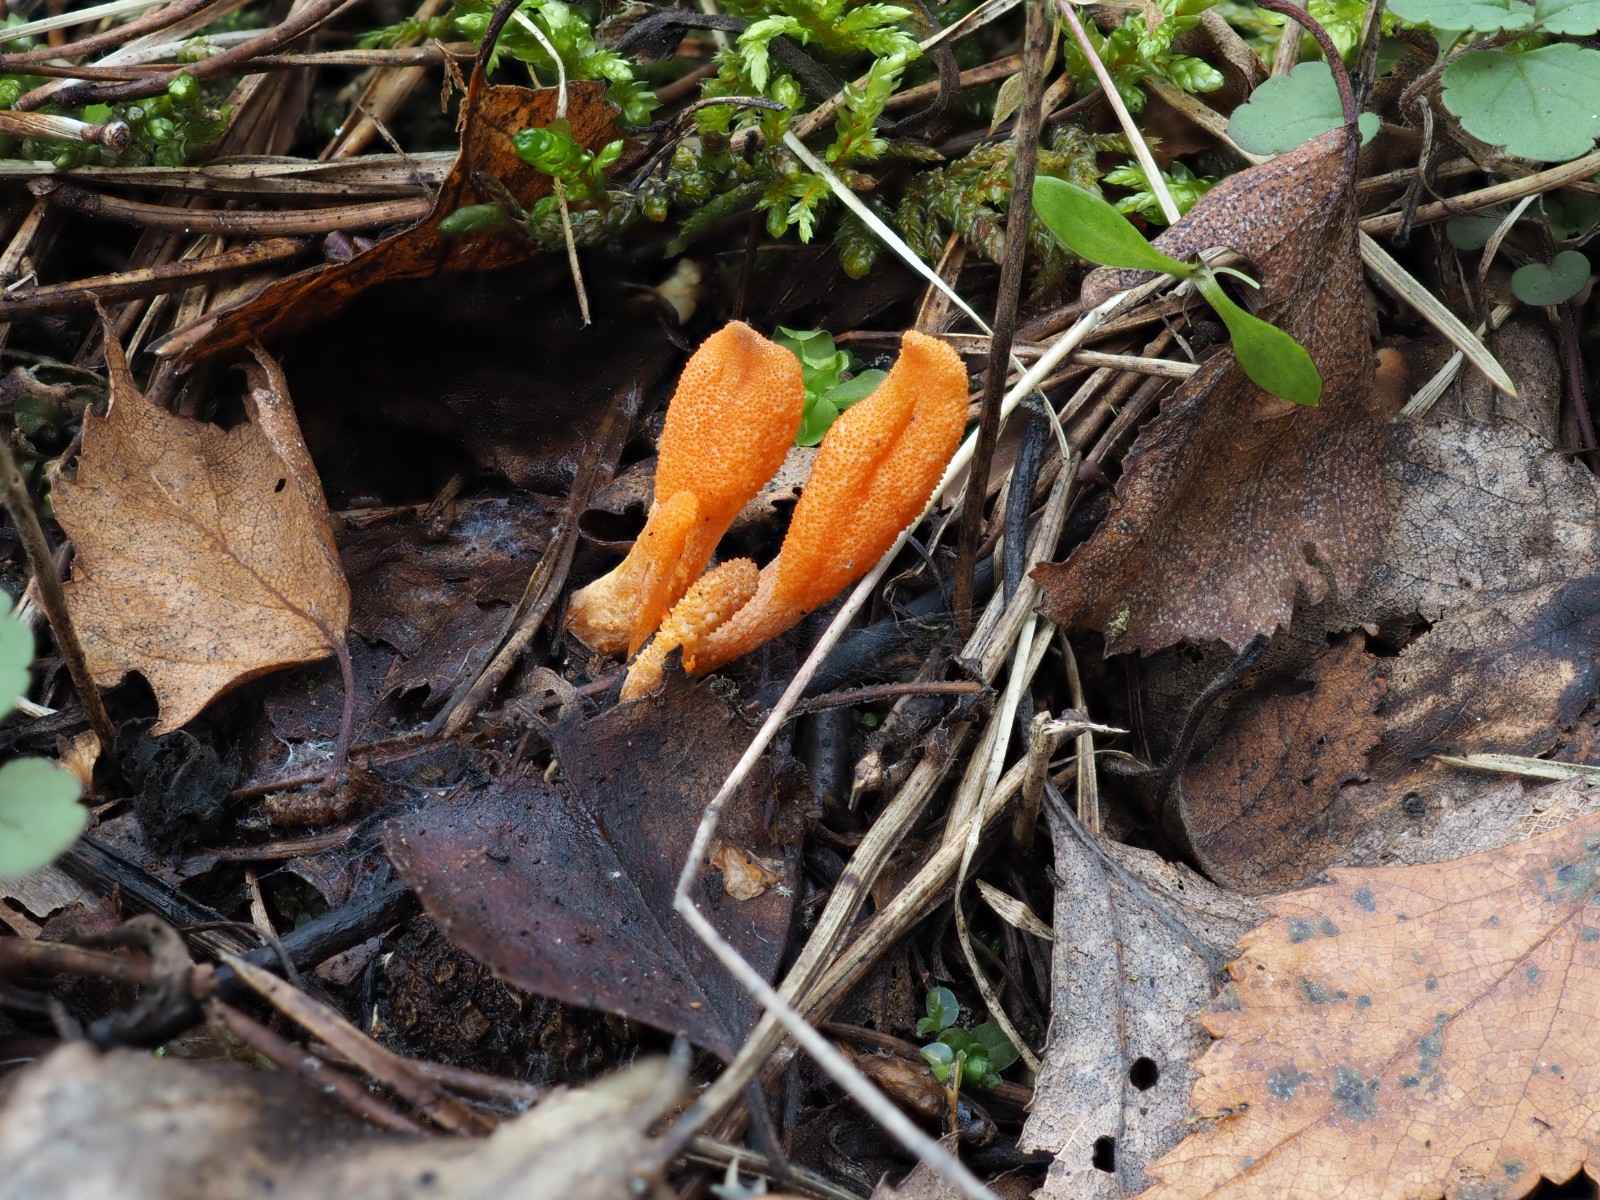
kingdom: Fungi
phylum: Ascomycota
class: Sordariomycetes
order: Hypocreales
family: Cordycipitaceae
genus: Cordyceps
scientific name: Cordyceps militaris
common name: puppe-snyltekølle
